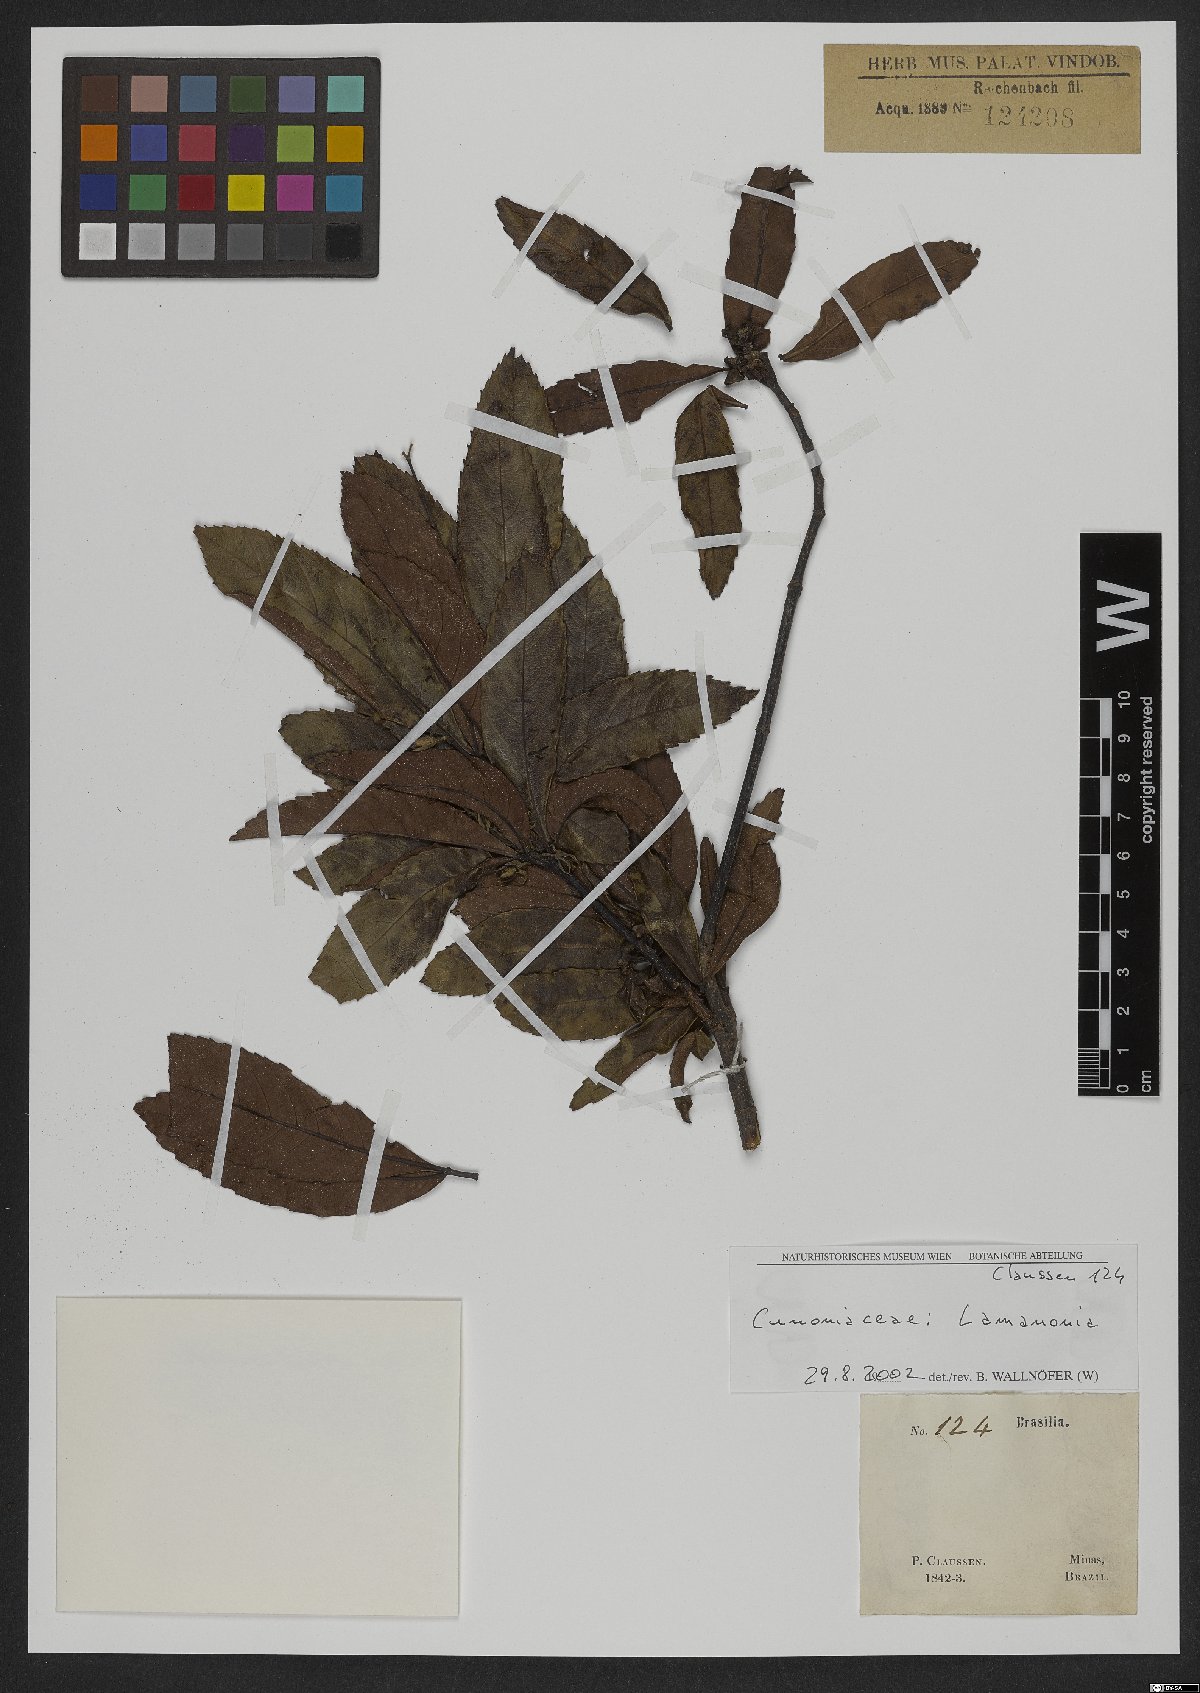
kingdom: Plantae
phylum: Tracheophyta
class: Magnoliopsida
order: Oxalidales
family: Cunoniaceae
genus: Lamanonia
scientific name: Lamanonia
